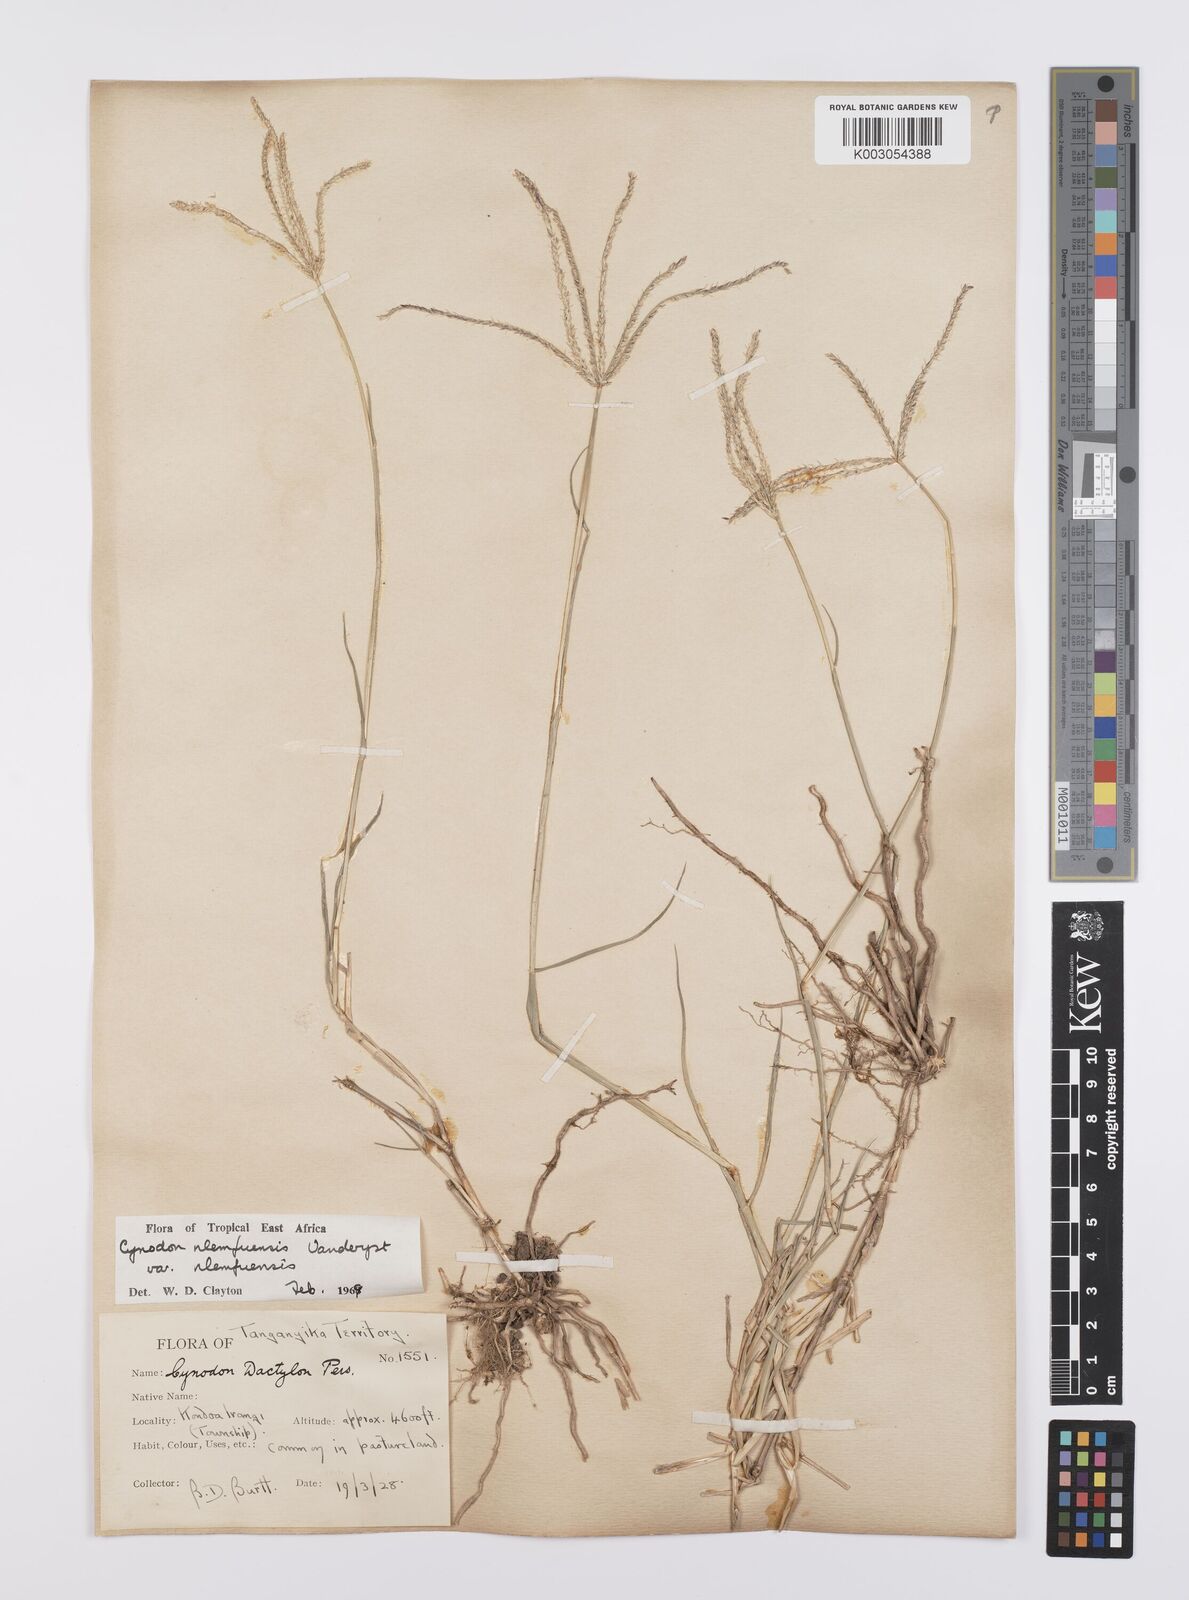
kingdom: Plantae
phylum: Tracheophyta
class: Liliopsida
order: Poales
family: Poaceae
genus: Cynodon
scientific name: Cynodon nlemfuensis
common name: African bermudagrass
